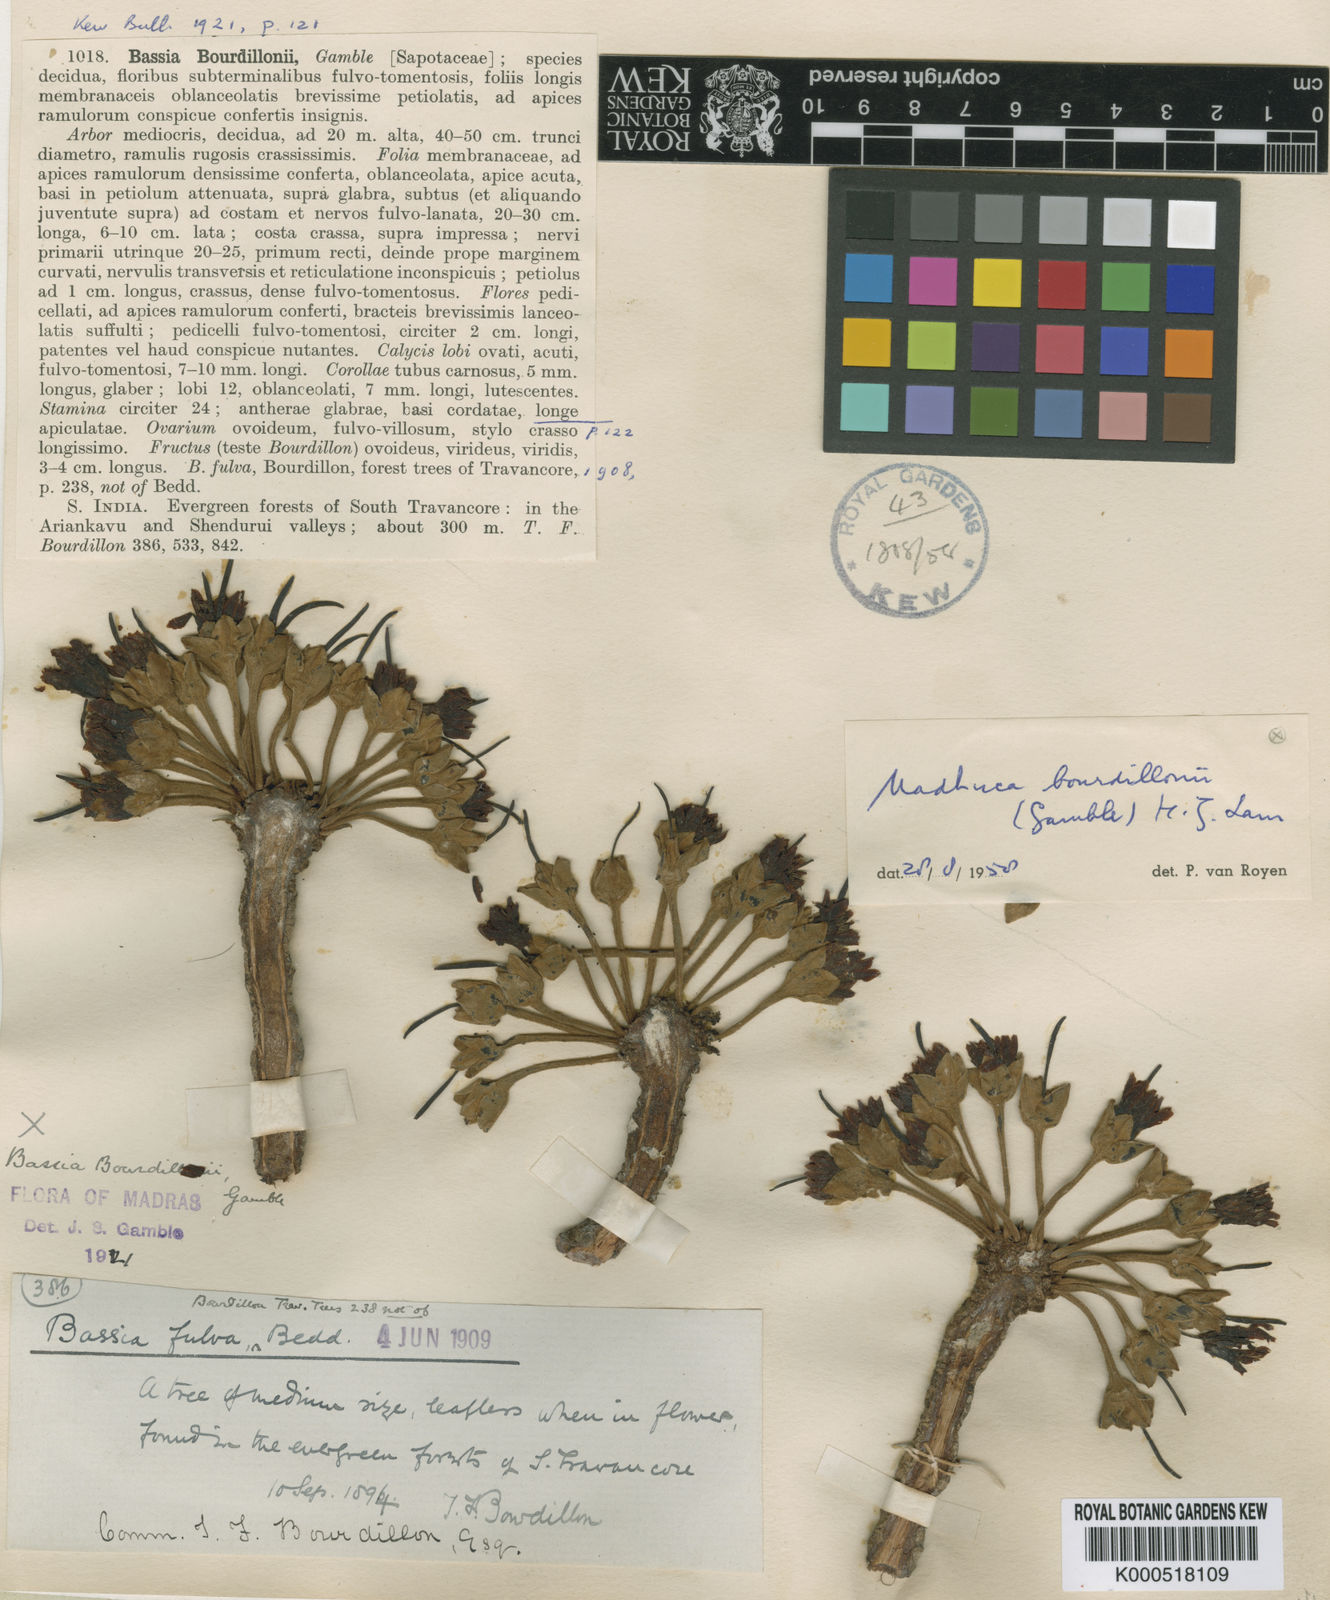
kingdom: Plantae
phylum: Tracheophyta
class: Magnoliopsida
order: Ericales
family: Sapotaceae
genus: Madhuca
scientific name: Madhuca bourdillonii
